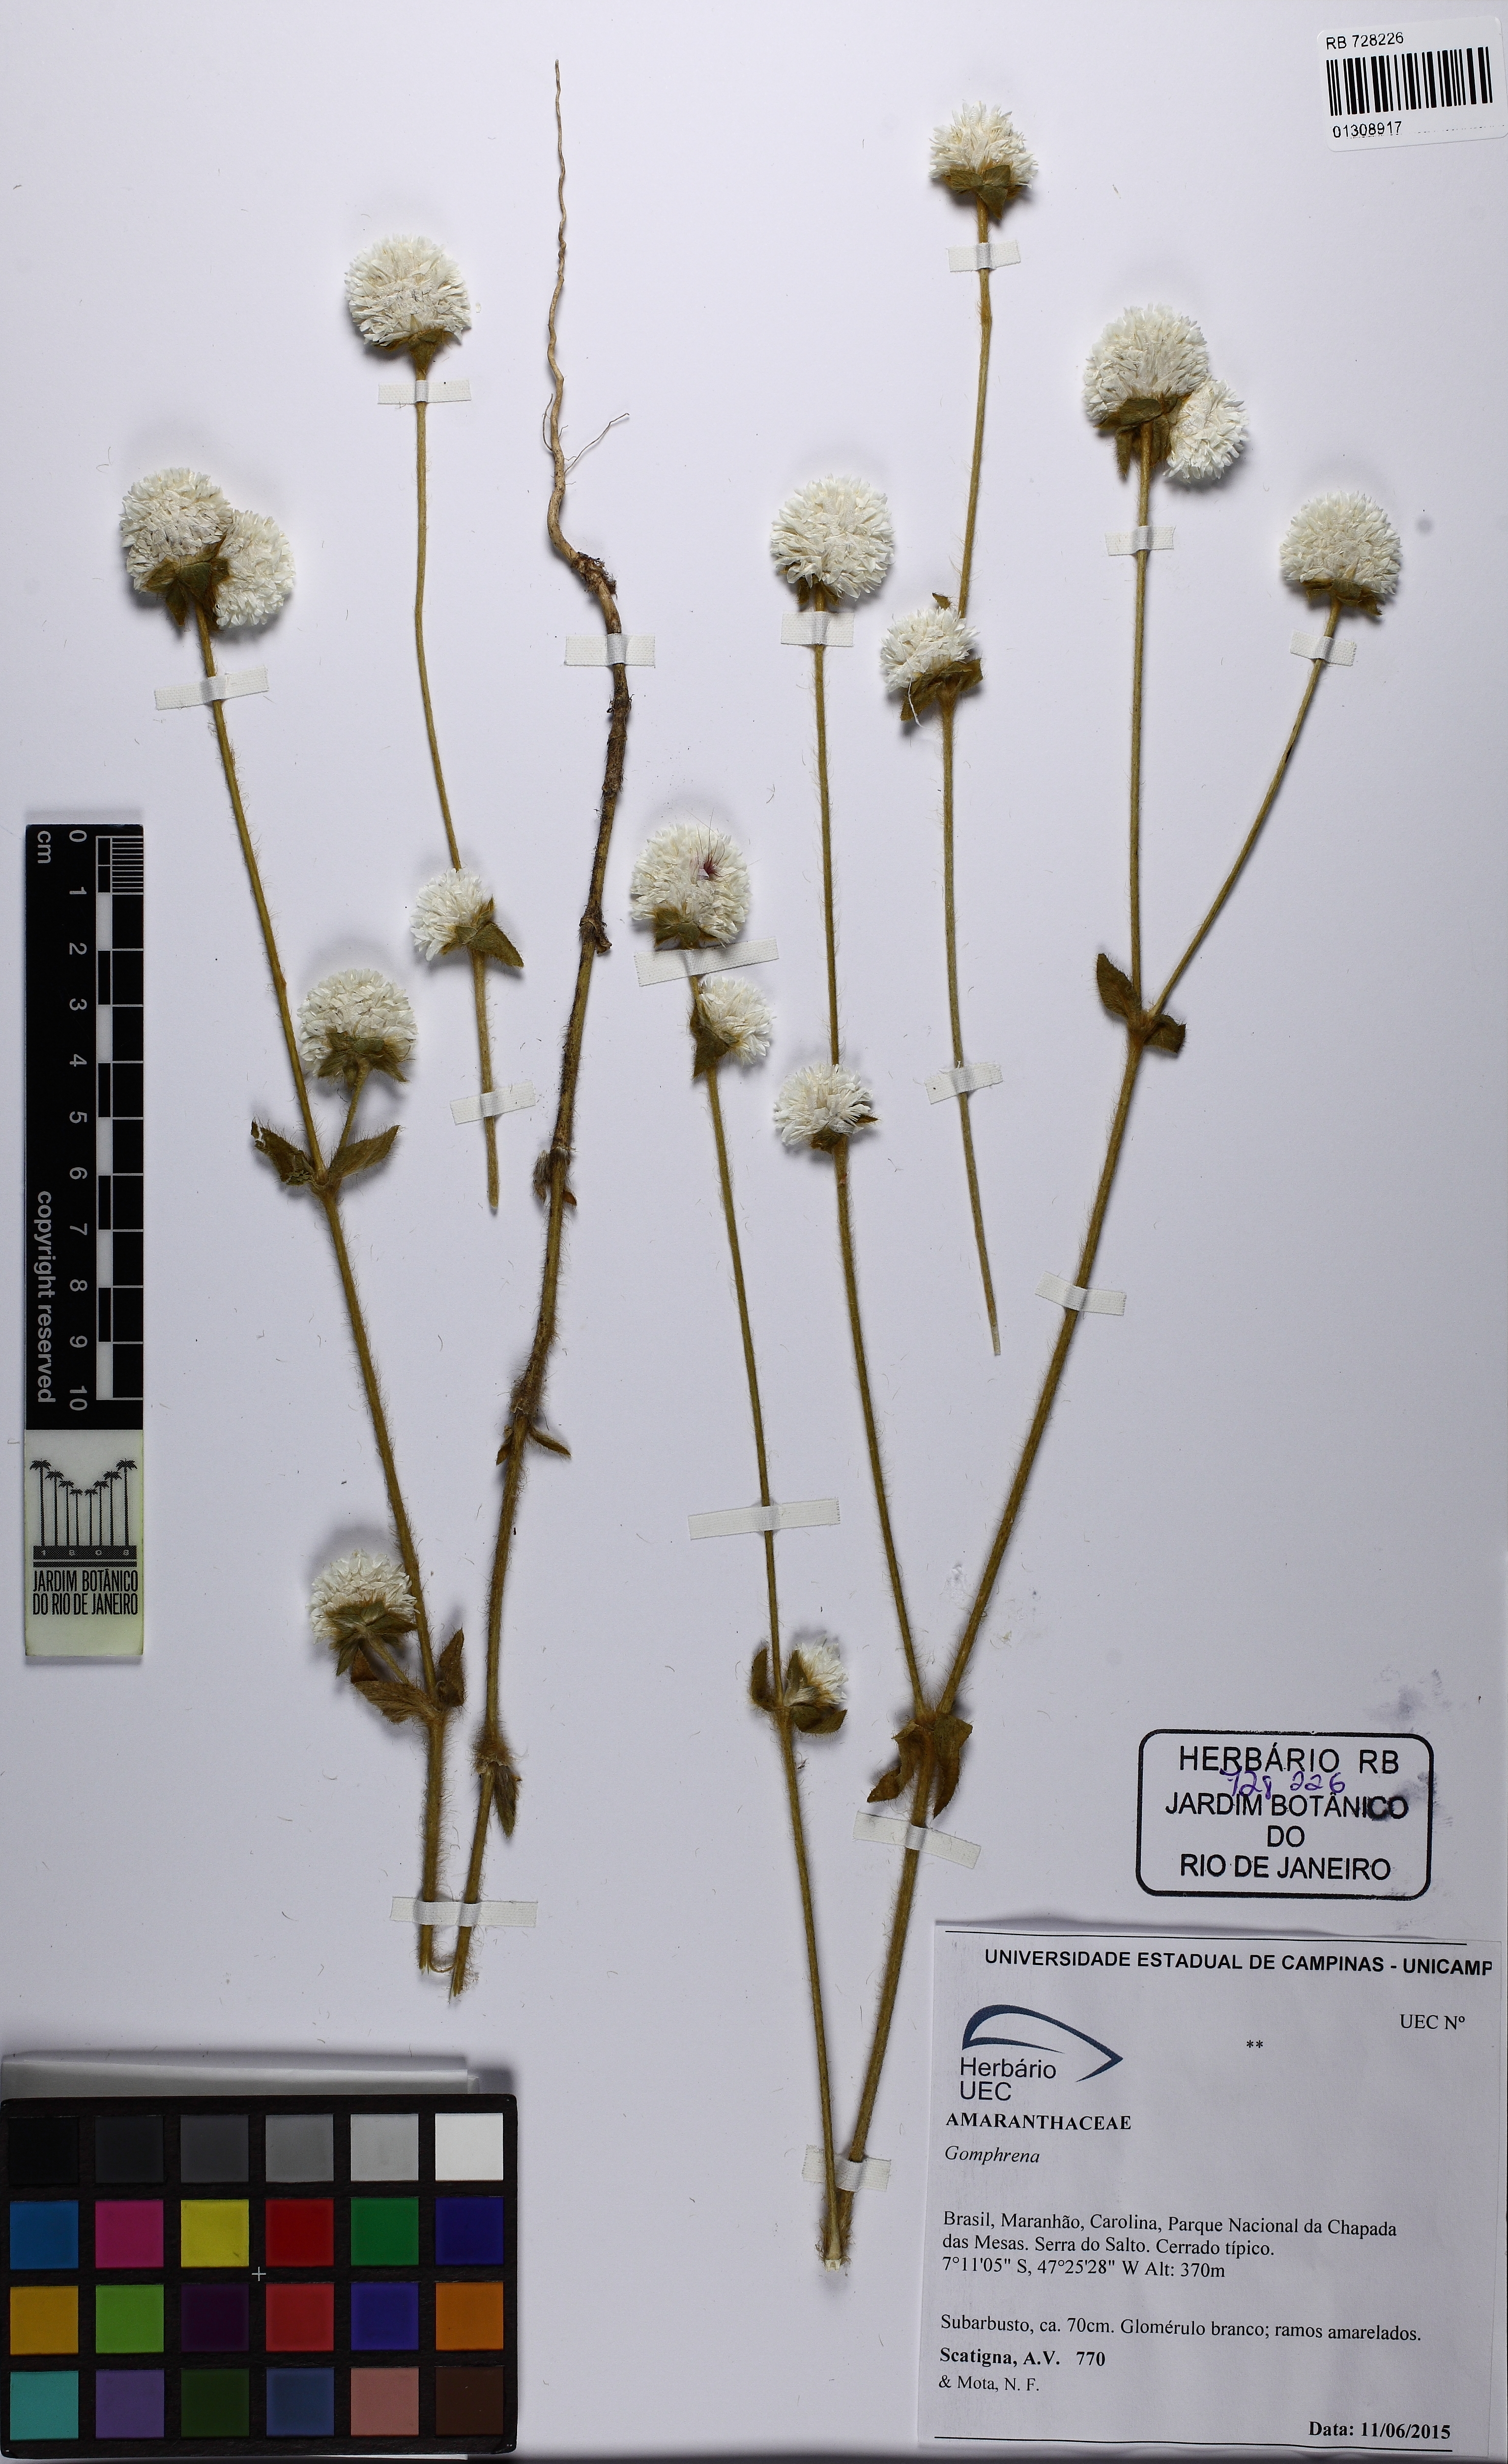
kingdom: Plantae
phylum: Tracheophyta
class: Magnoliopsida
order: Caryophyllales
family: Amaranthaceae
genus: Gomphrena
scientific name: Gomphrena
